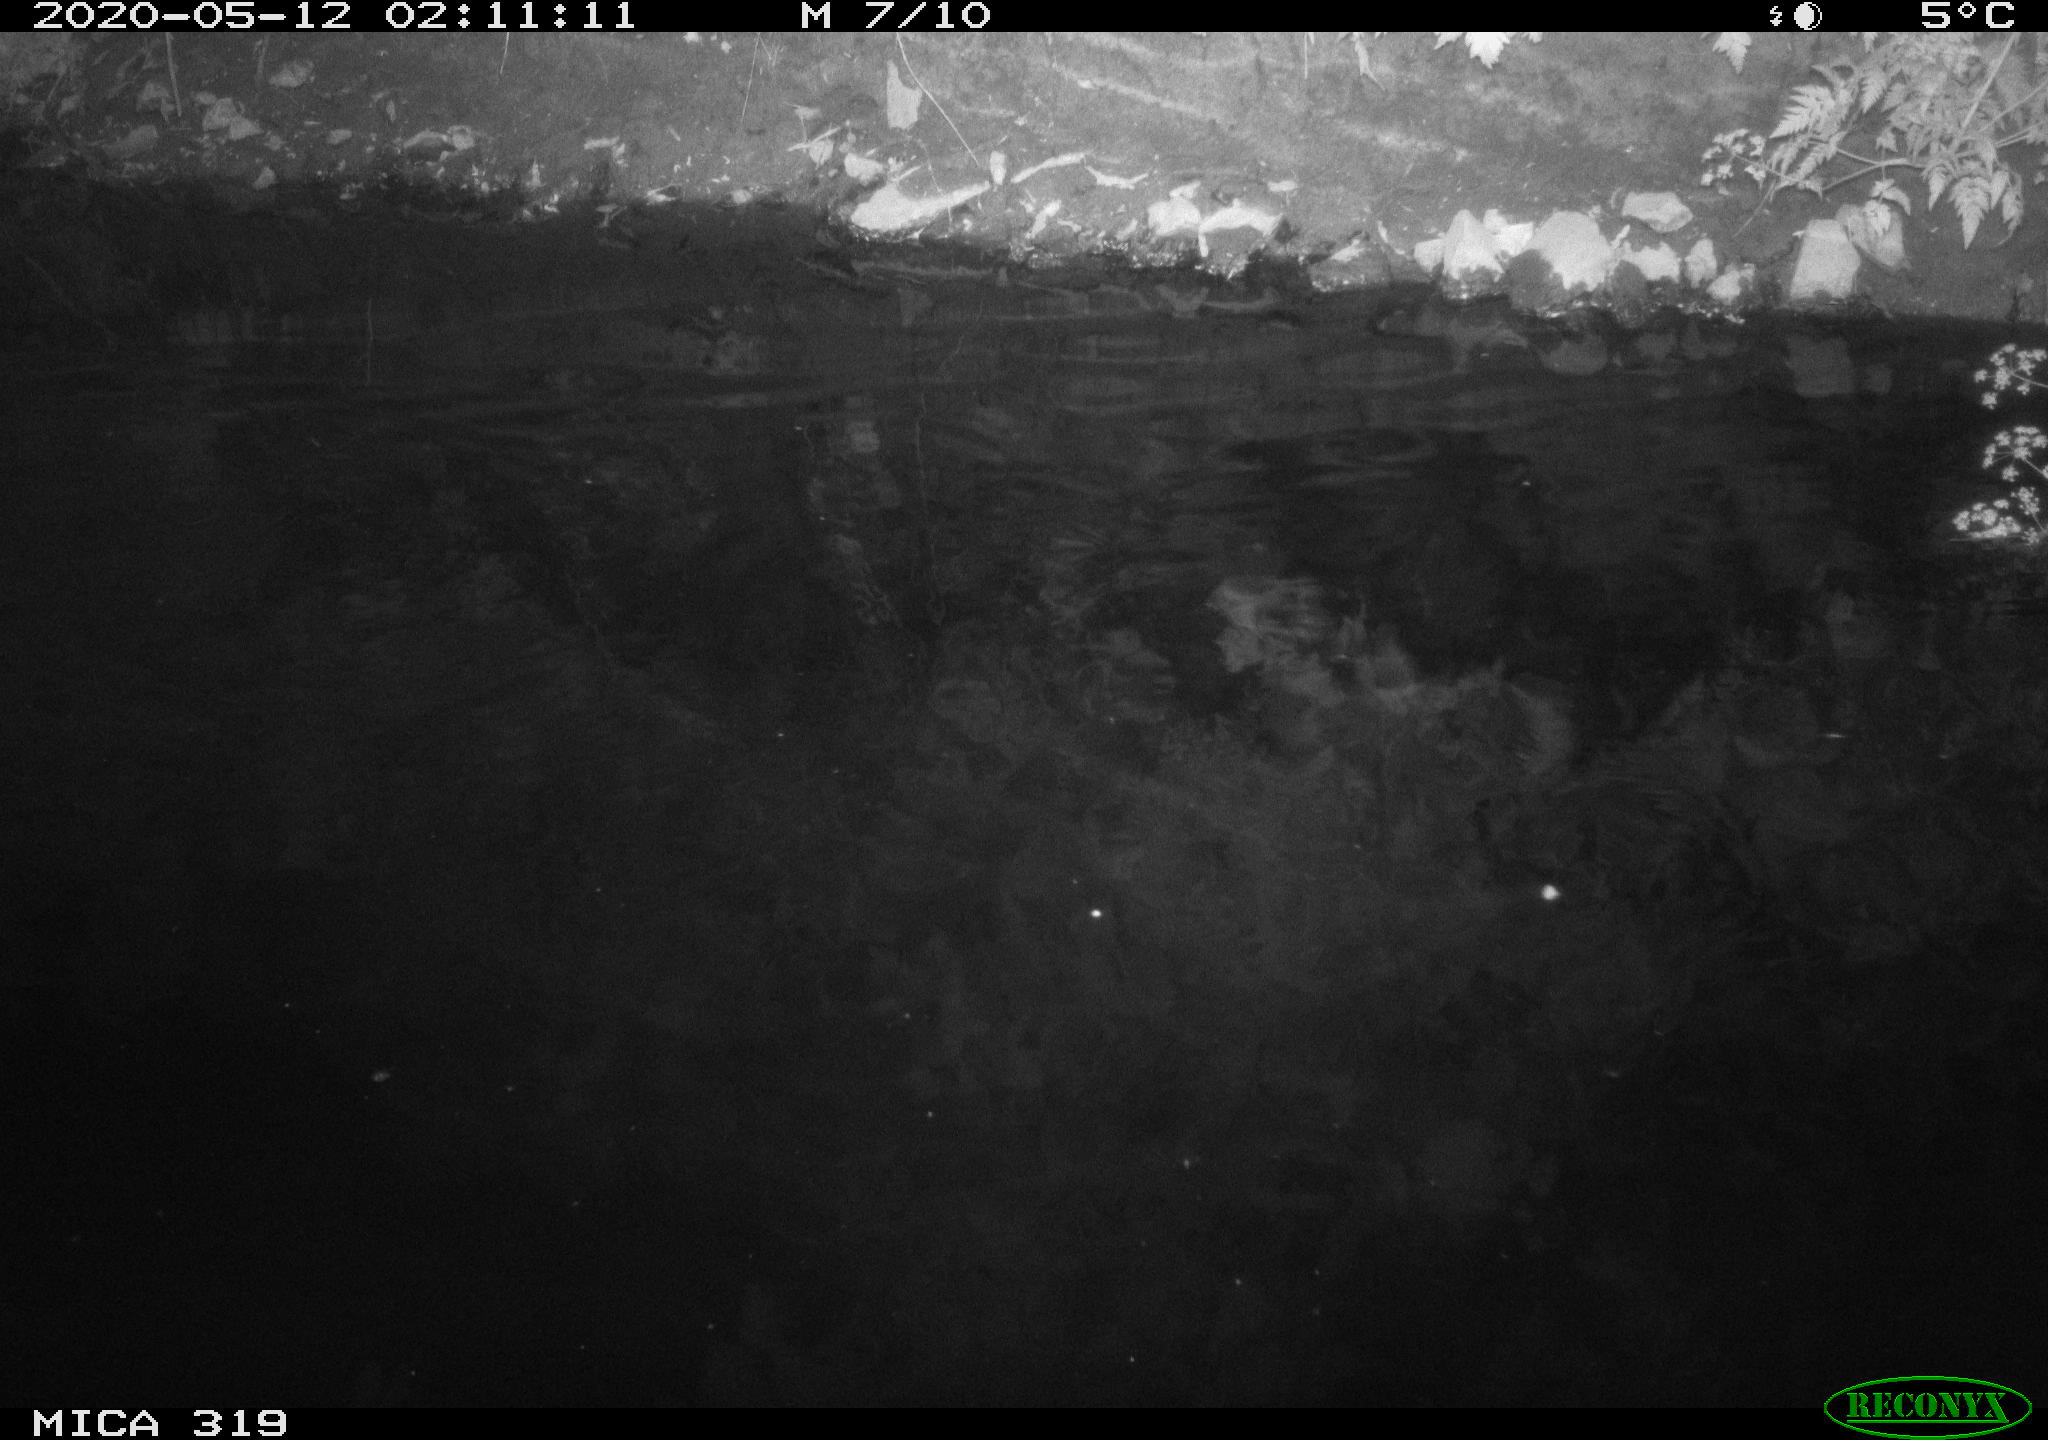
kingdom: Animalia
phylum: Chordata
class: Aves
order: Anseriformes
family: Anatidae
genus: Anas
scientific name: Anas platyrhynchos
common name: Mallard
